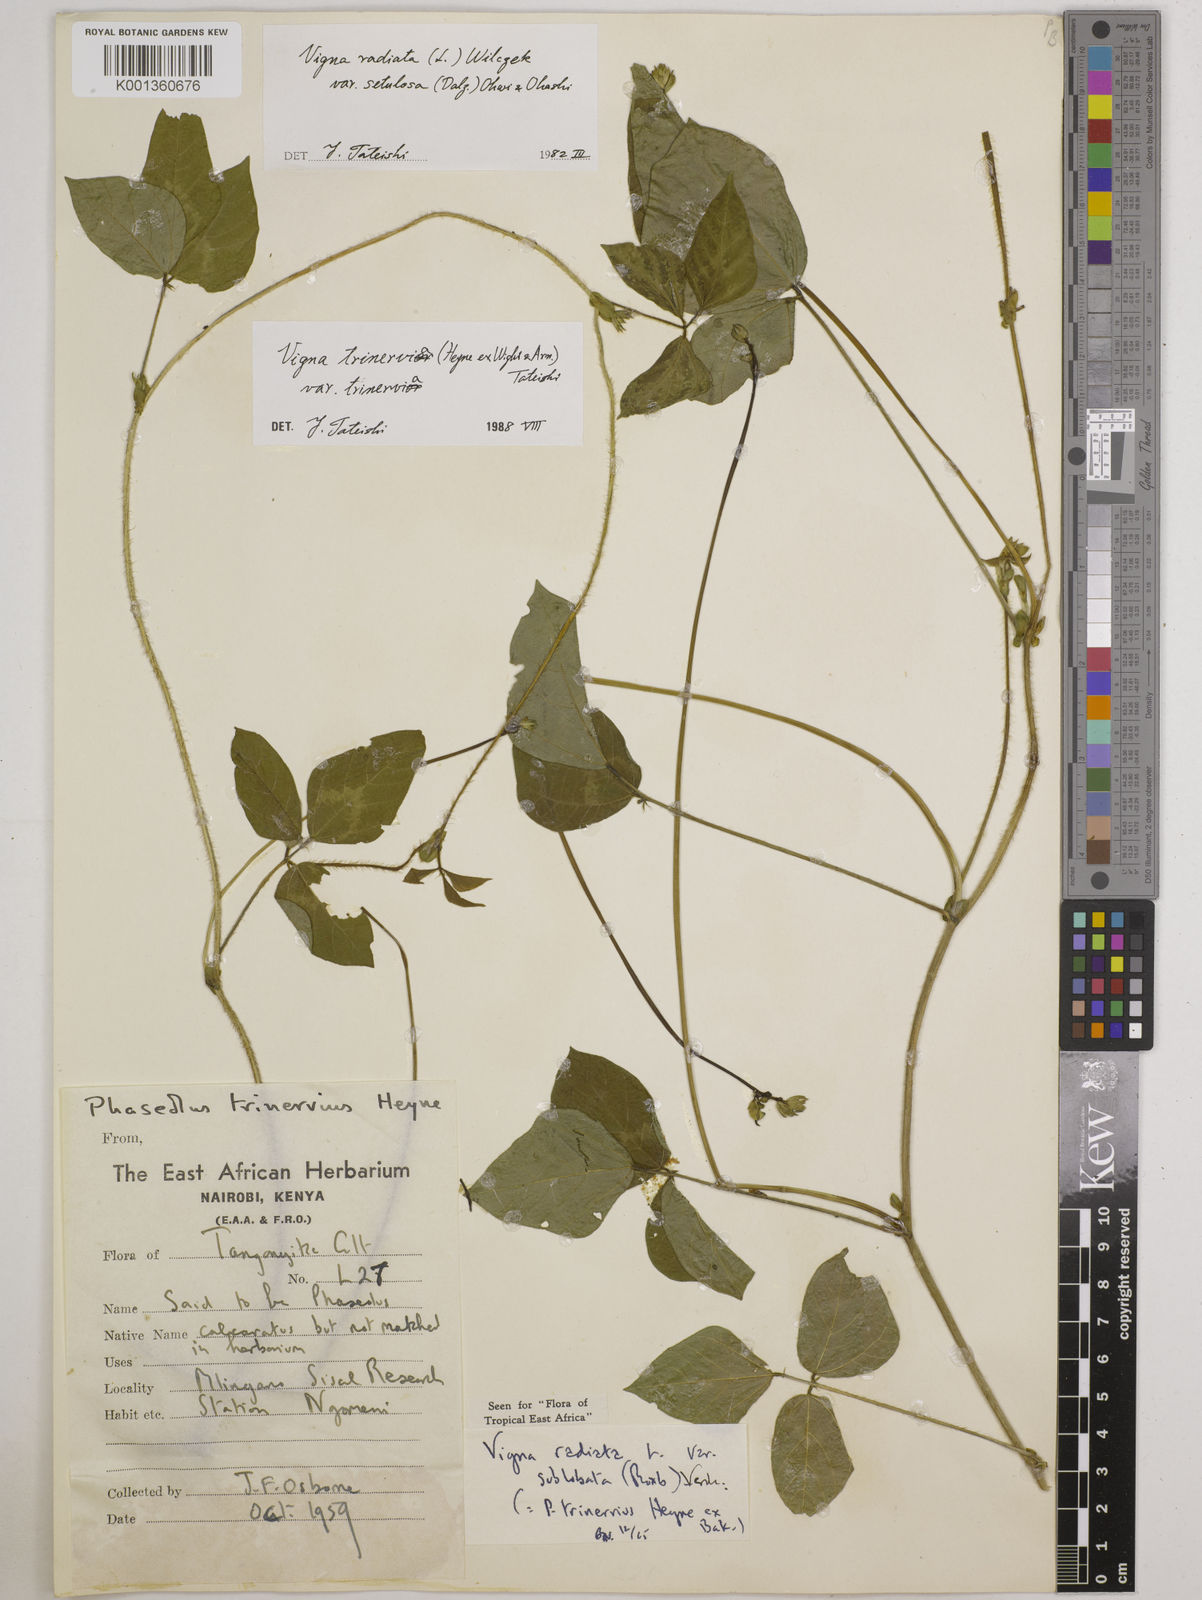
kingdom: Plantae
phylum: Tracheophyta
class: Magnoliopsida
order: Fabales
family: Fabaceae
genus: Vigna
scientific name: Vigna radiata
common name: Mung-bean
